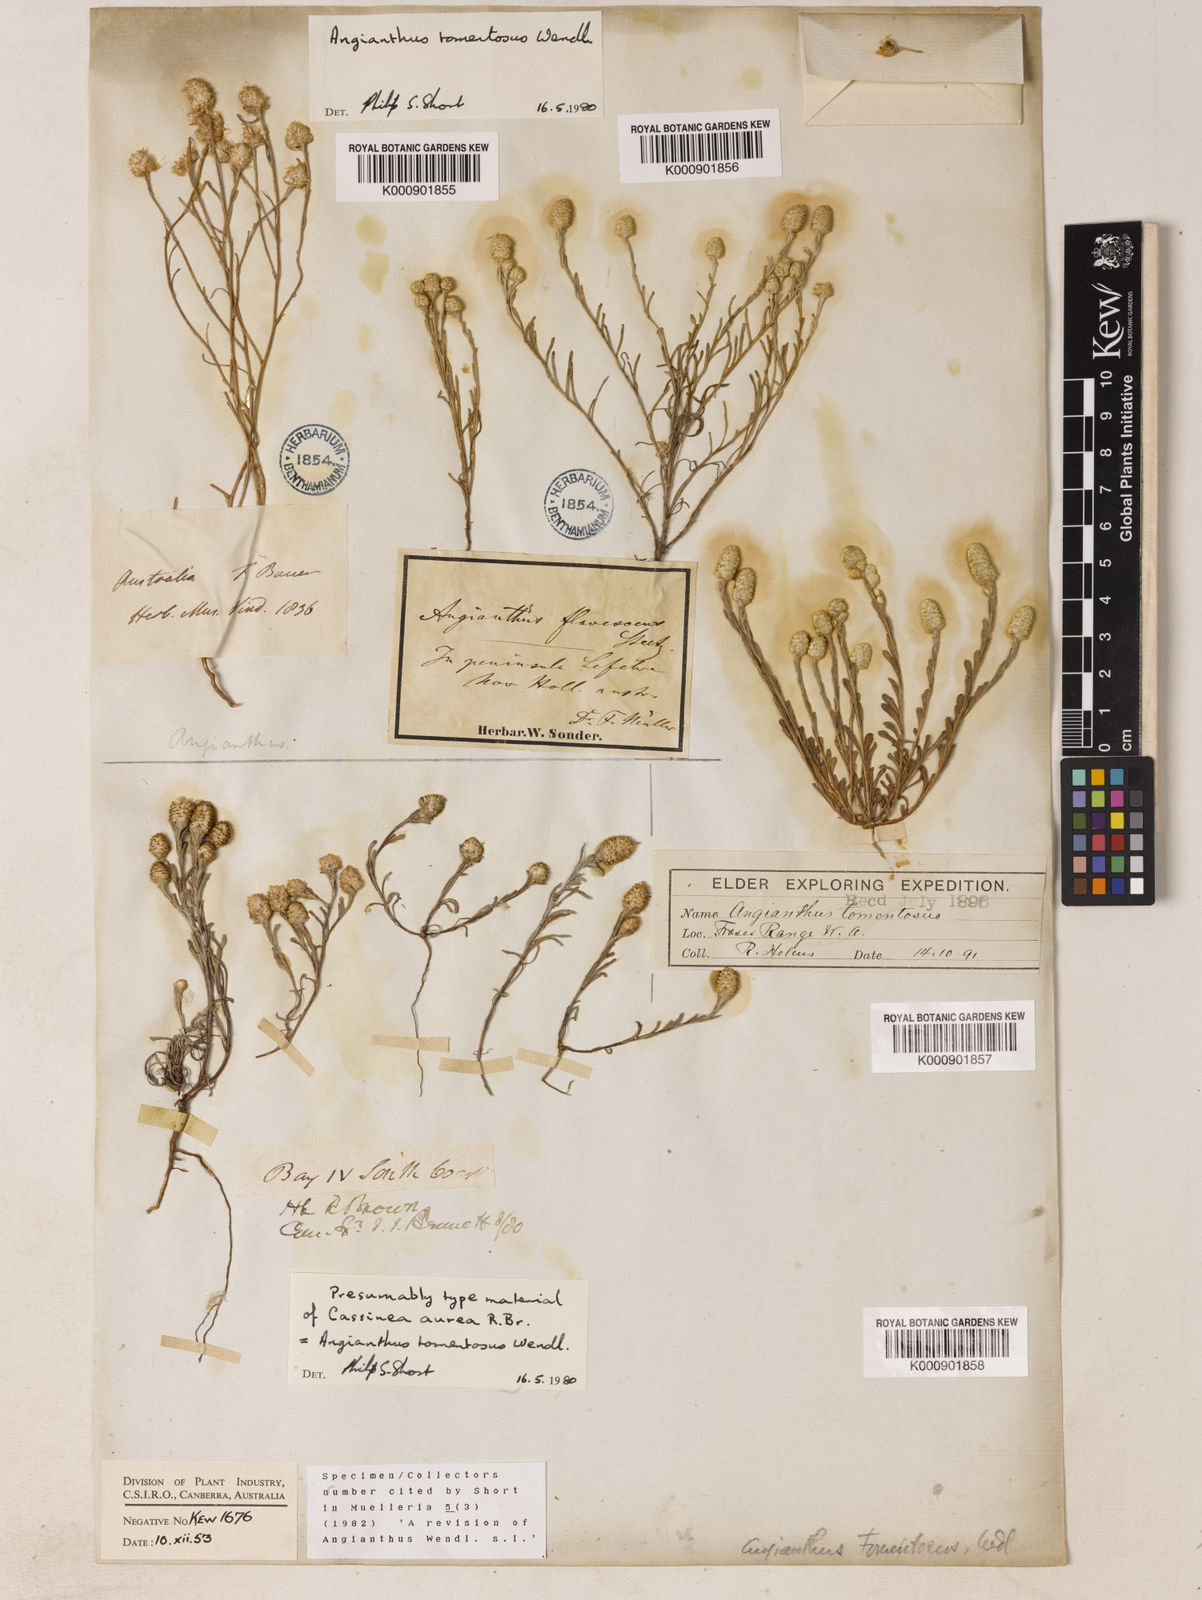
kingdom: Plantae
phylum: Tracheophyta
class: Magnoliopsida
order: Asterales
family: Asteraceae
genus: Siloxerus
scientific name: Siloxerus tomentosus
